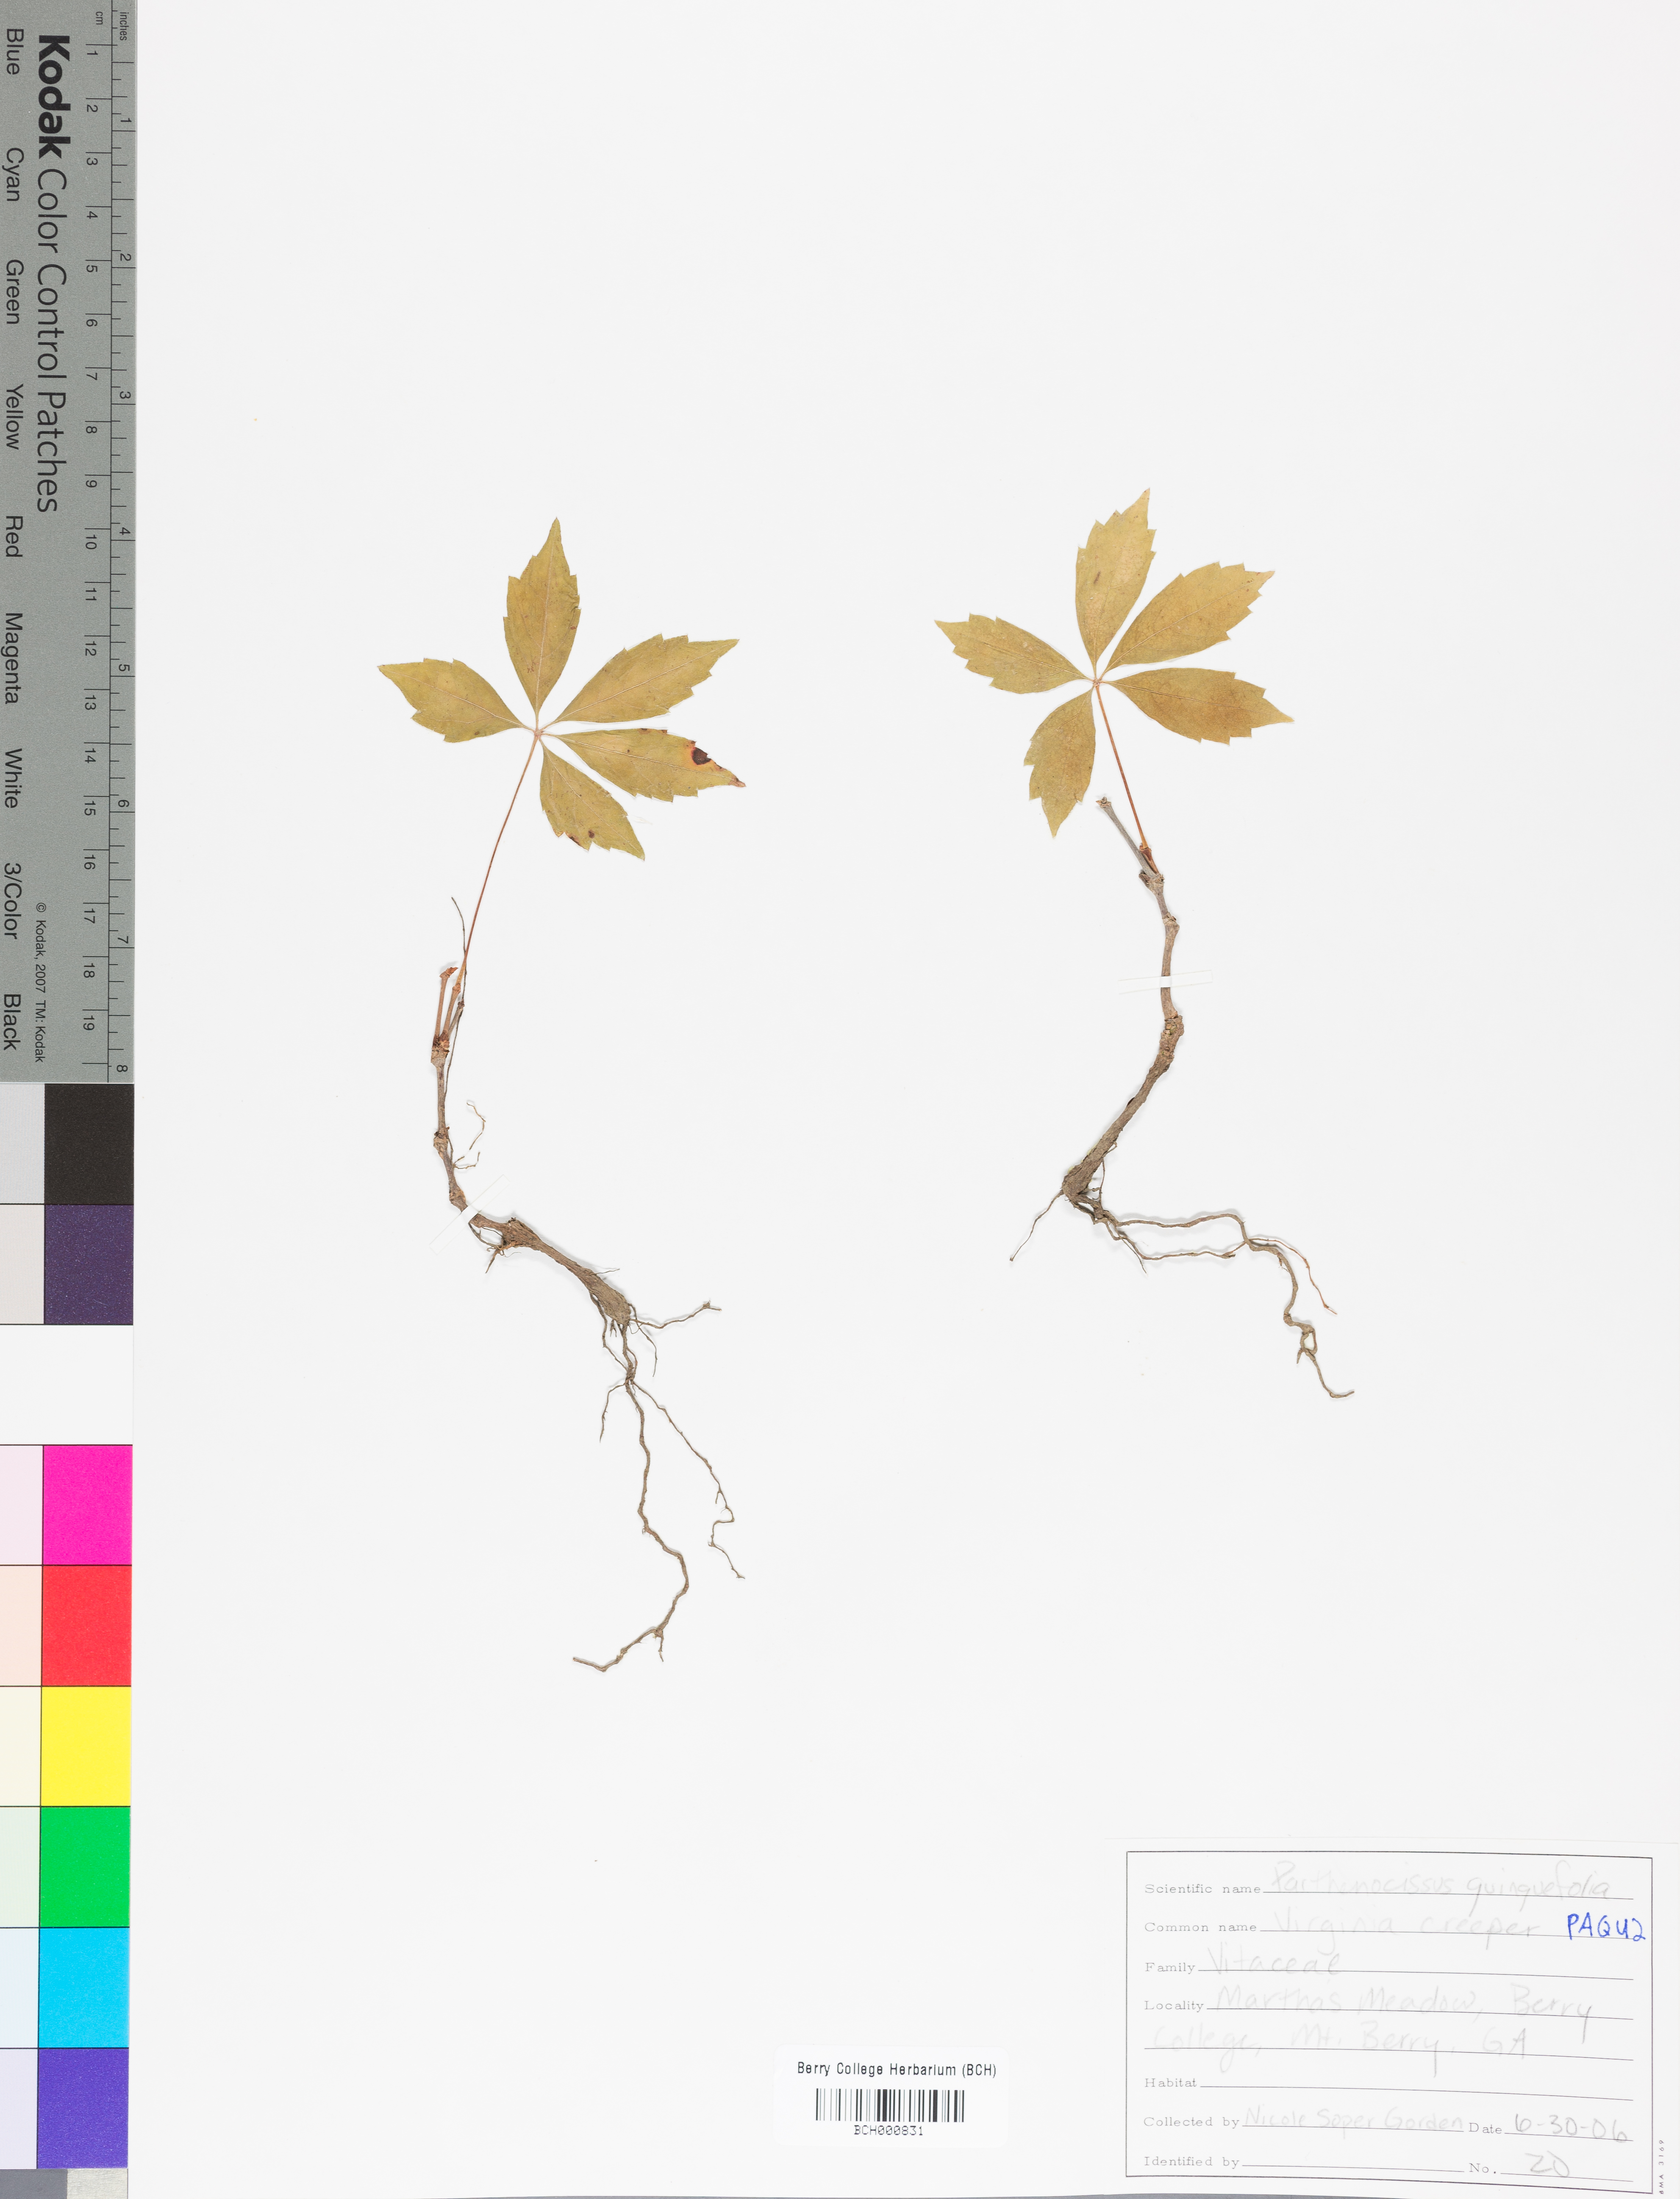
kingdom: Plantae
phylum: Tracheophyta
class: Magnoliopsida
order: Vitales
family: Vitaceae
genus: Parthenocissus
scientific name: Parthenocissus quinquefolia
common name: Virginia-creeper
